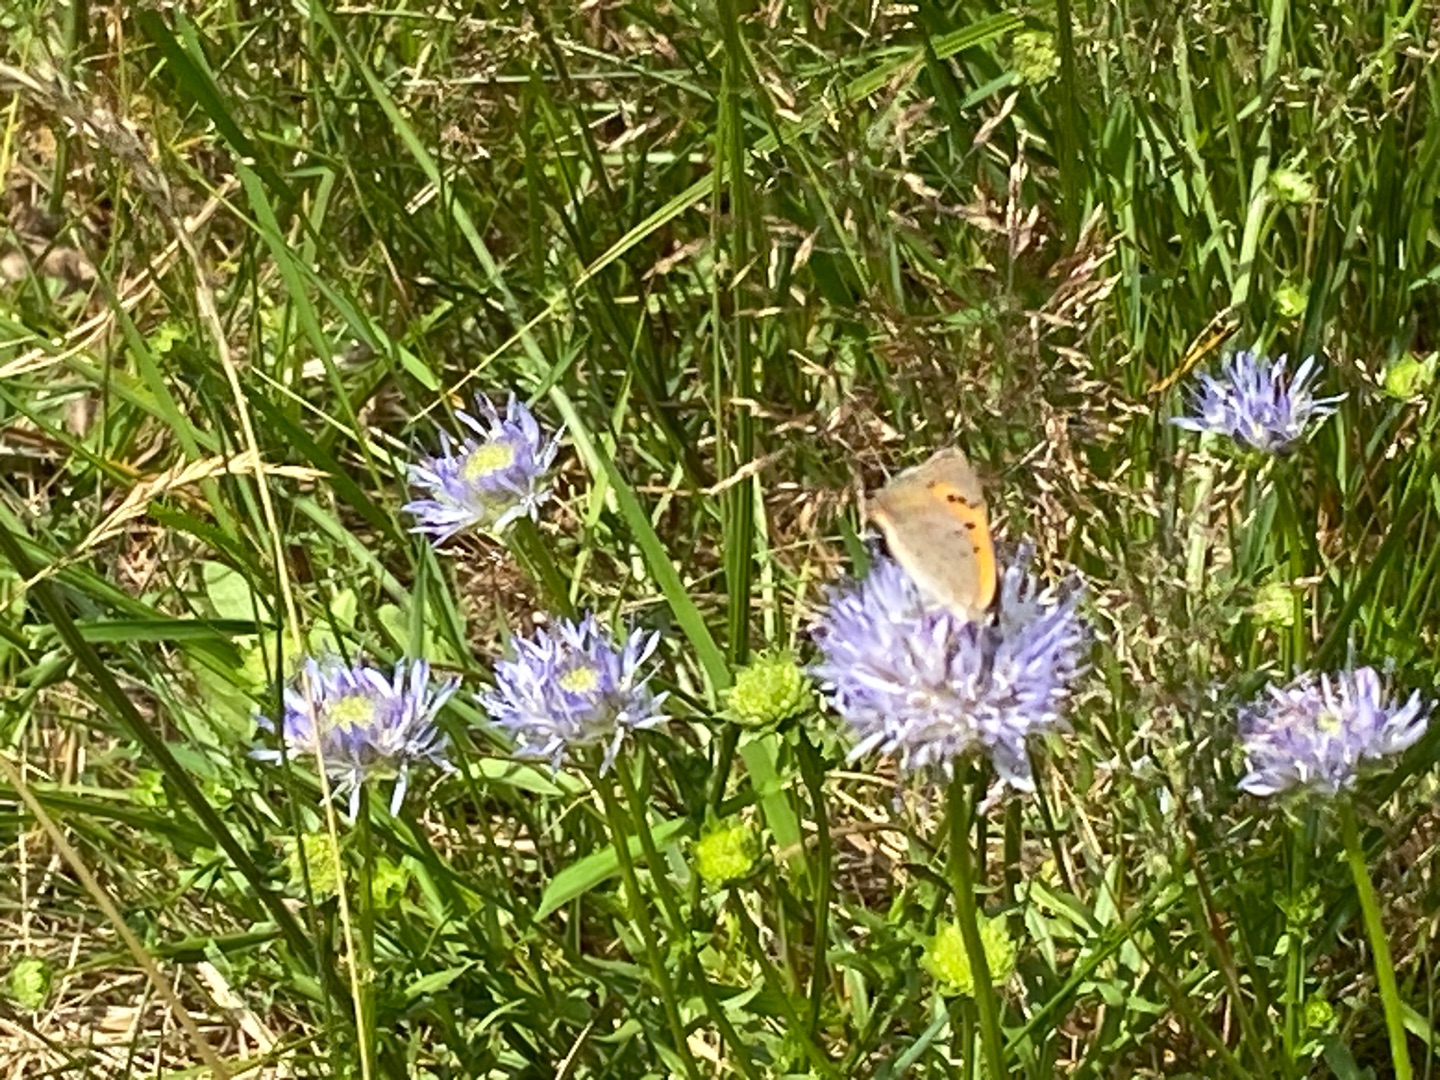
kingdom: Animalia
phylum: Arthropoda
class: Insecta
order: Lepidoptera
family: Lycaenidae
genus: Lycaena
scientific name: Lycaena phlaeas
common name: Lille ildfugl
